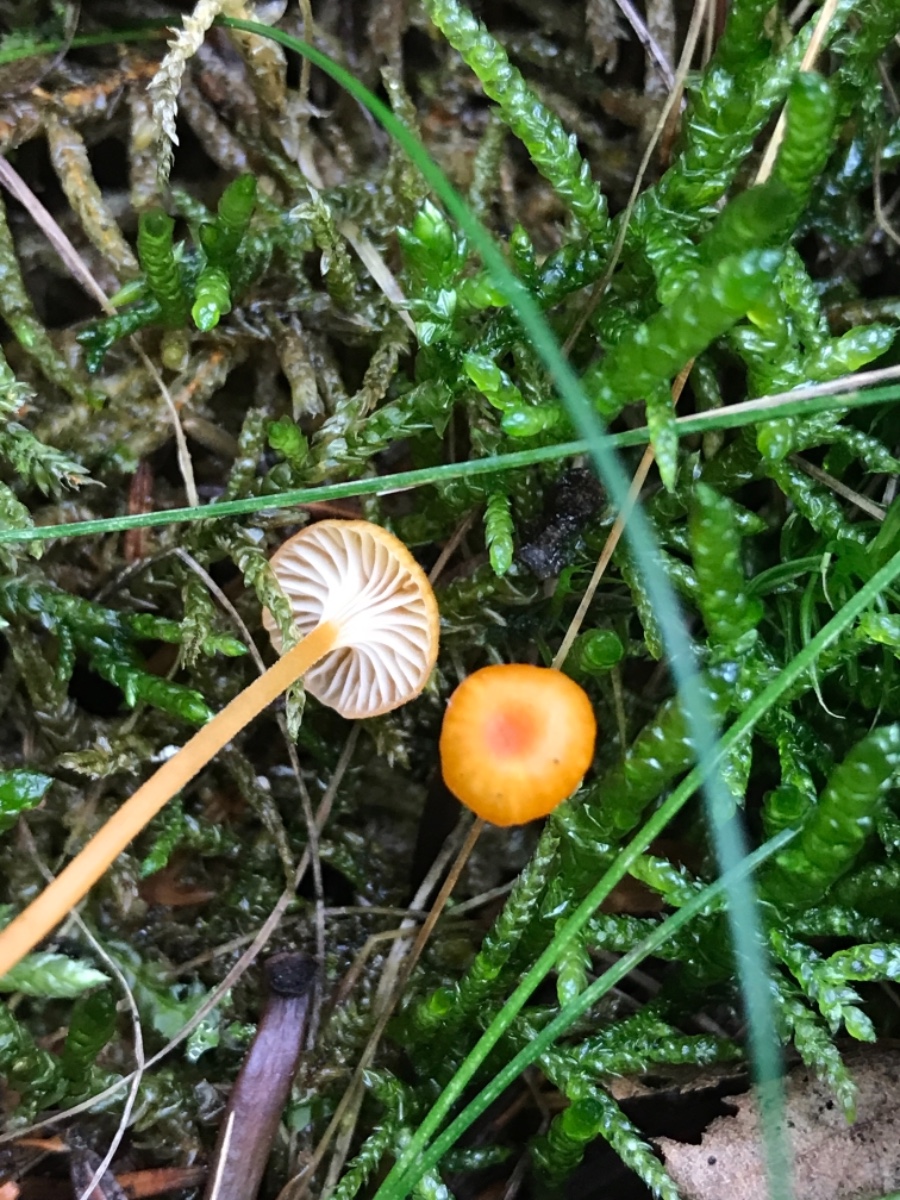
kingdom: Fungi
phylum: Basidiomycota
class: Agaricomycetes
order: Hymenochaetales
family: Rickenellaceae
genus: Rickenella
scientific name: Rickenella fibula
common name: orange mosnavlehat
